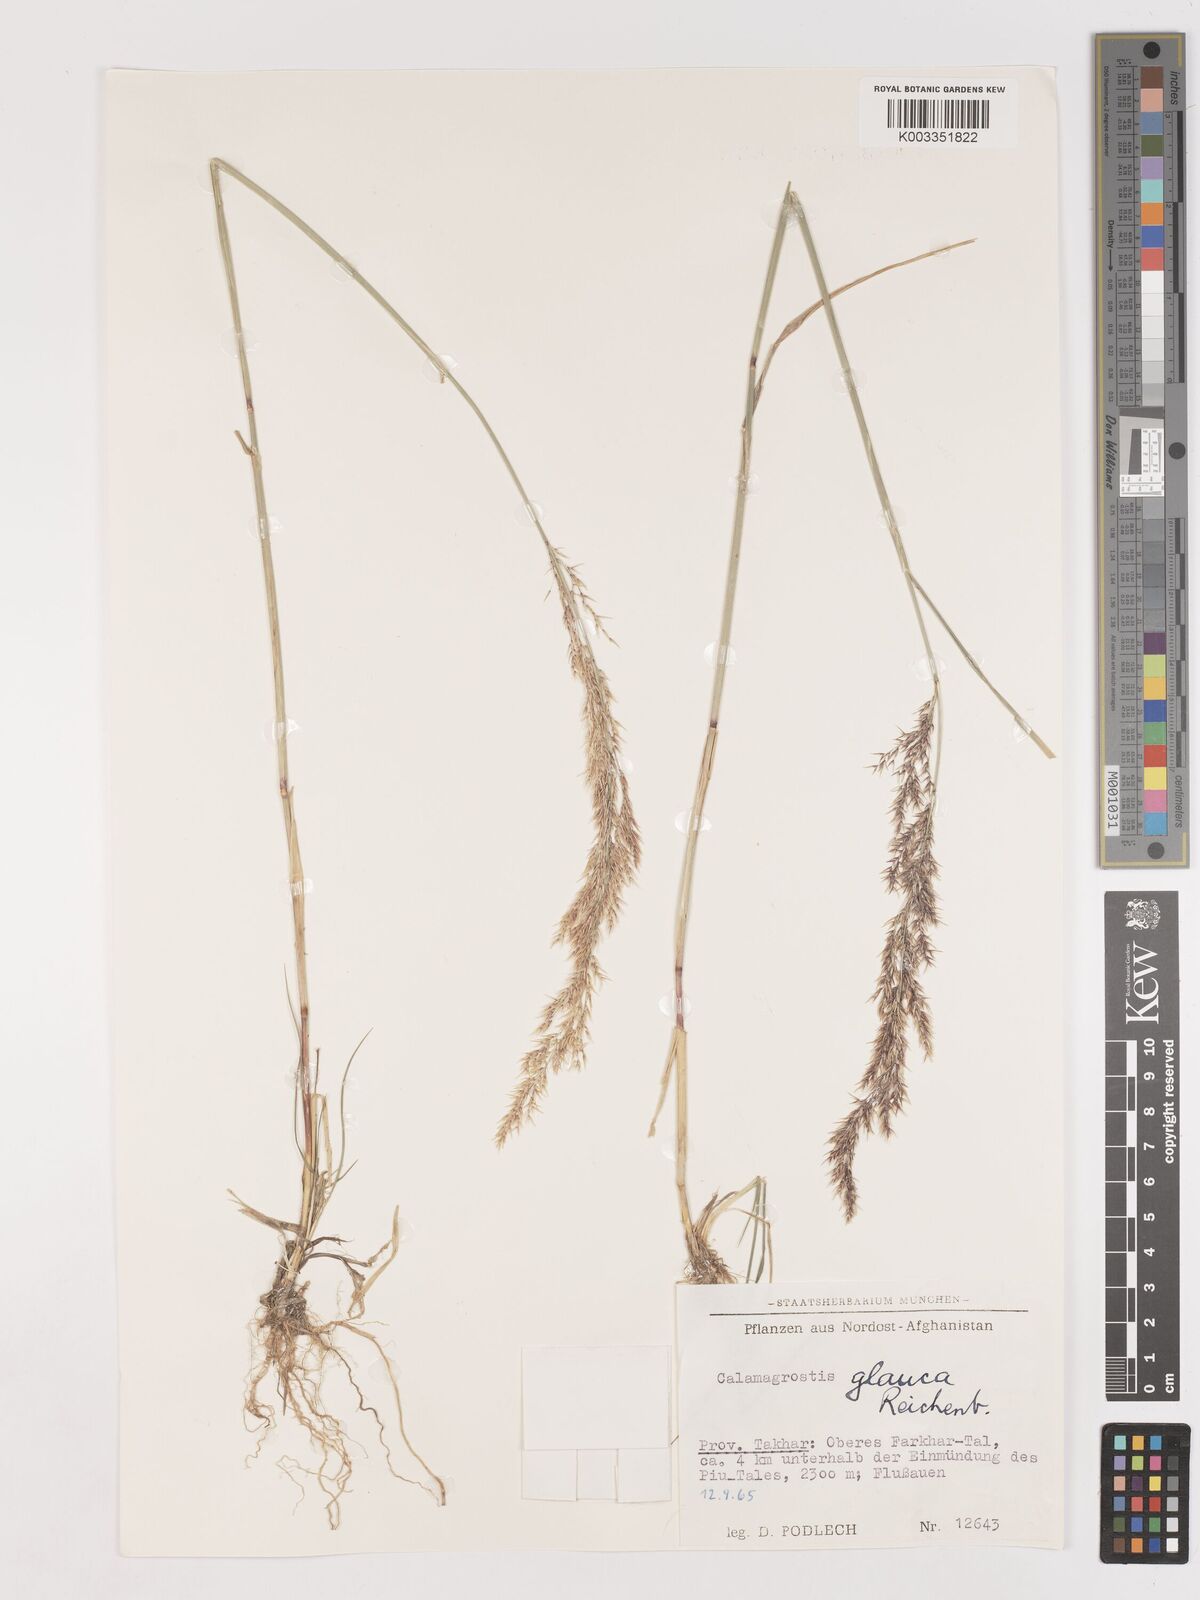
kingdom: Plantae
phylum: Tracheophyta
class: Liliopsida
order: Poales
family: Poaceae
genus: Calamagrostis
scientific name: Calamagrostis pseudophragmites
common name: Coastal small-reed
